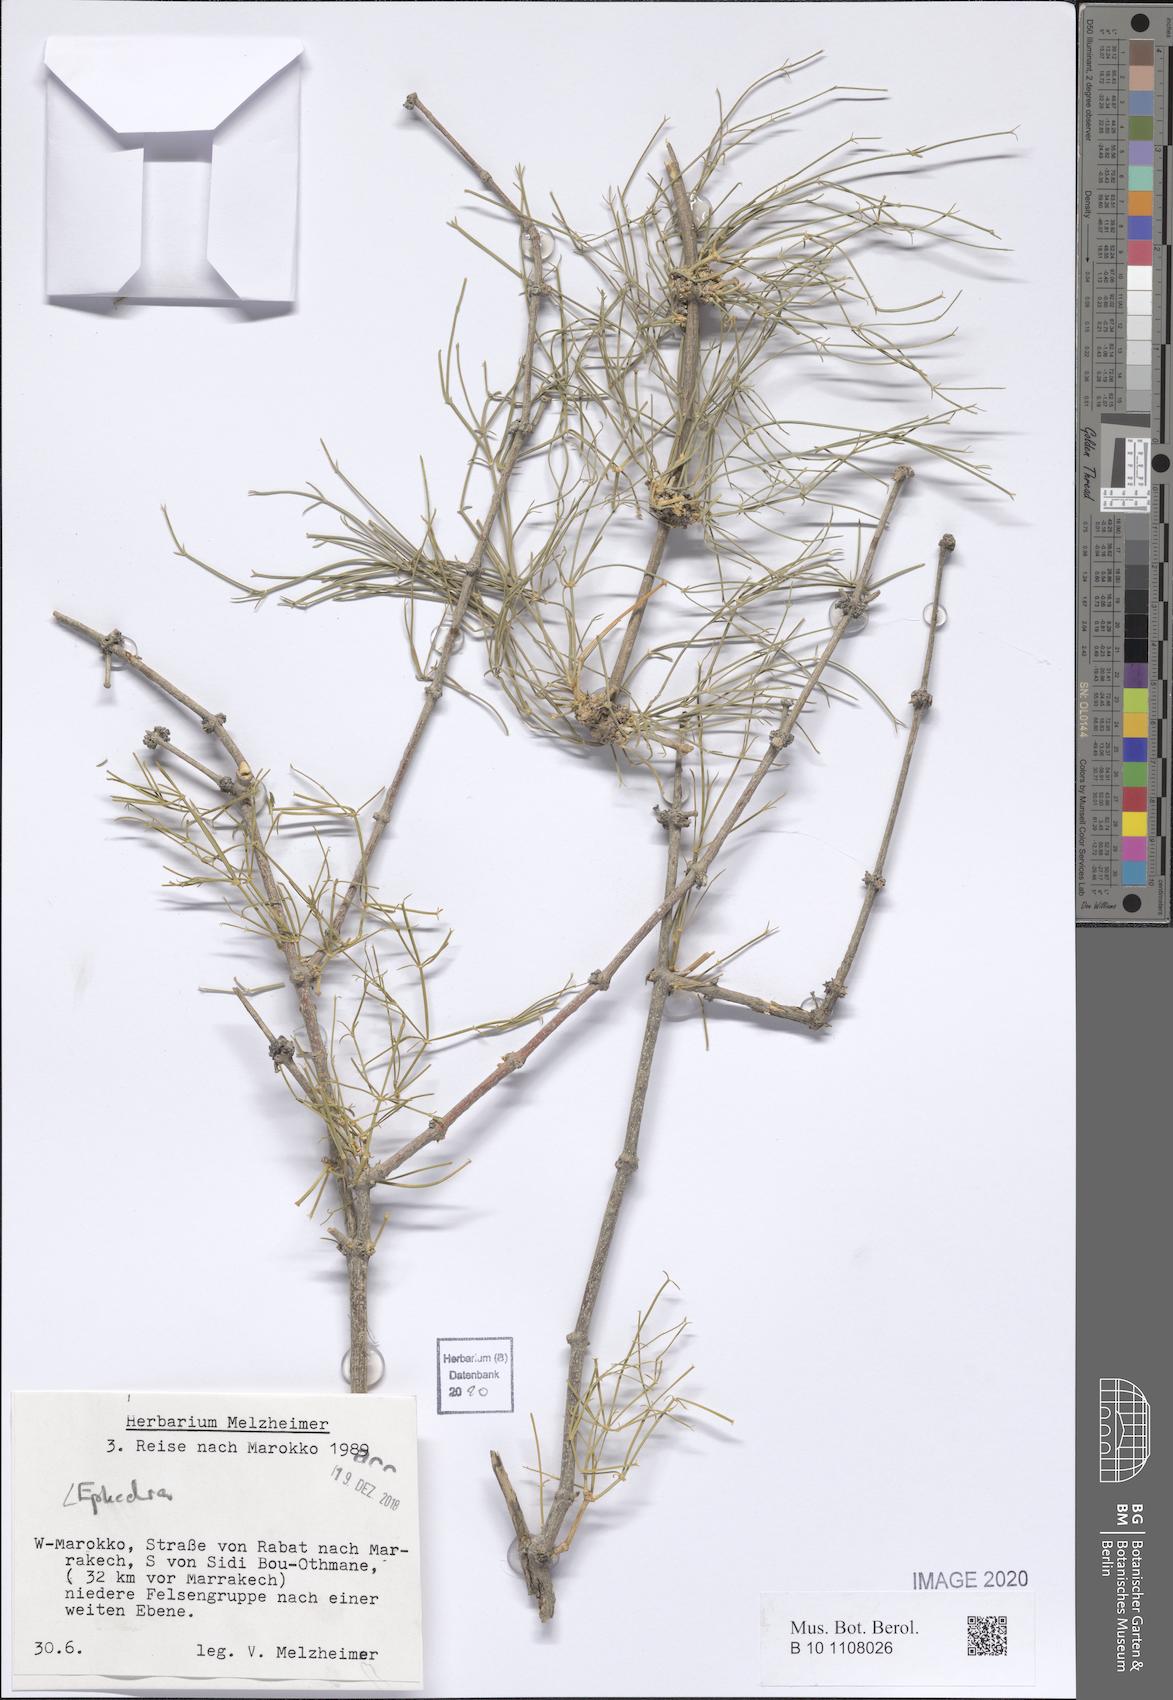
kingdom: Plantae
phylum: Tracheophyta
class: Gnetopsida
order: Ephedrales
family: Ephedraceae
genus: Ephedra
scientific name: Ephedra
